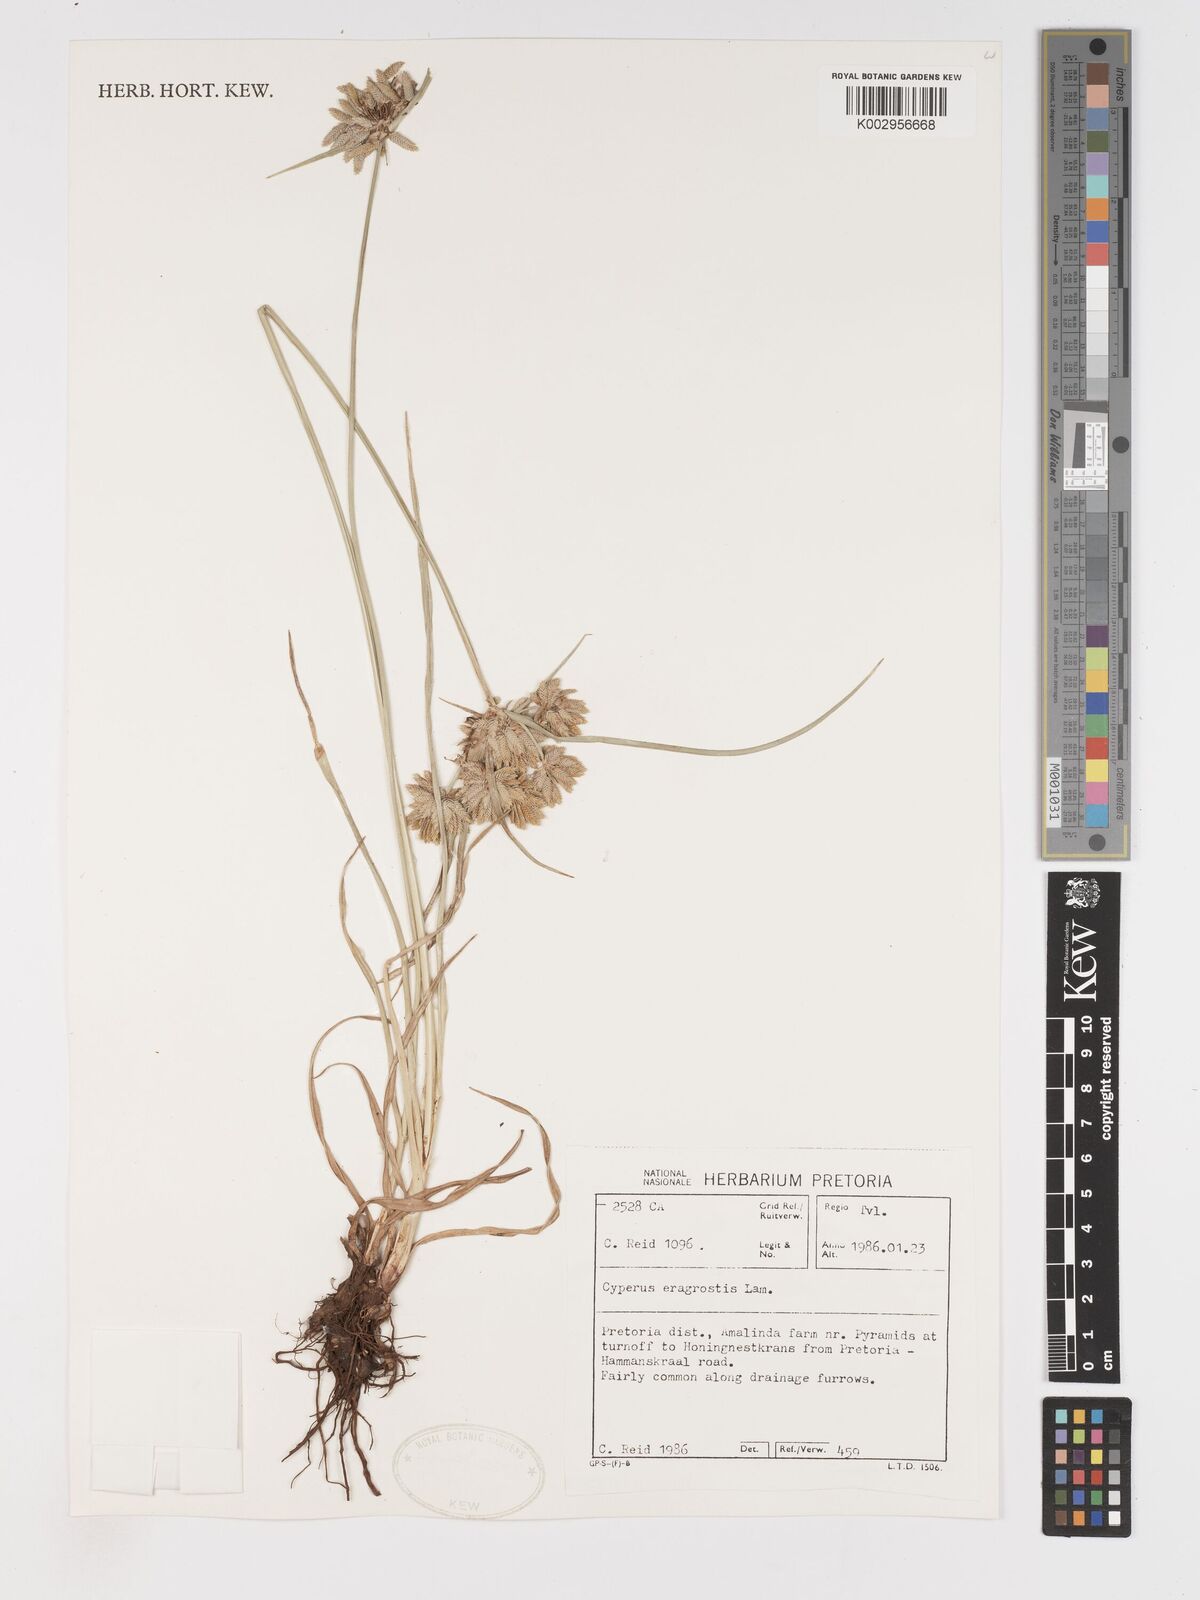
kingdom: Plantae
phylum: Tracheophyta
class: Liliopsida
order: Poales
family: Cyperaceae
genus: Cyperus
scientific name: Cyperus eragrostis
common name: Tall flatsedge
